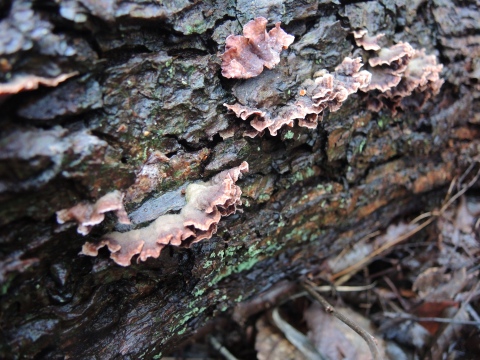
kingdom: Fungi
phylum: Basidiomycota
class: Agaricomycetes
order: Agaricales
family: Cyphellaceae
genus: Chondrostereum
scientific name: Chondrostereum purpureum
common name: purpurlædersvamp
